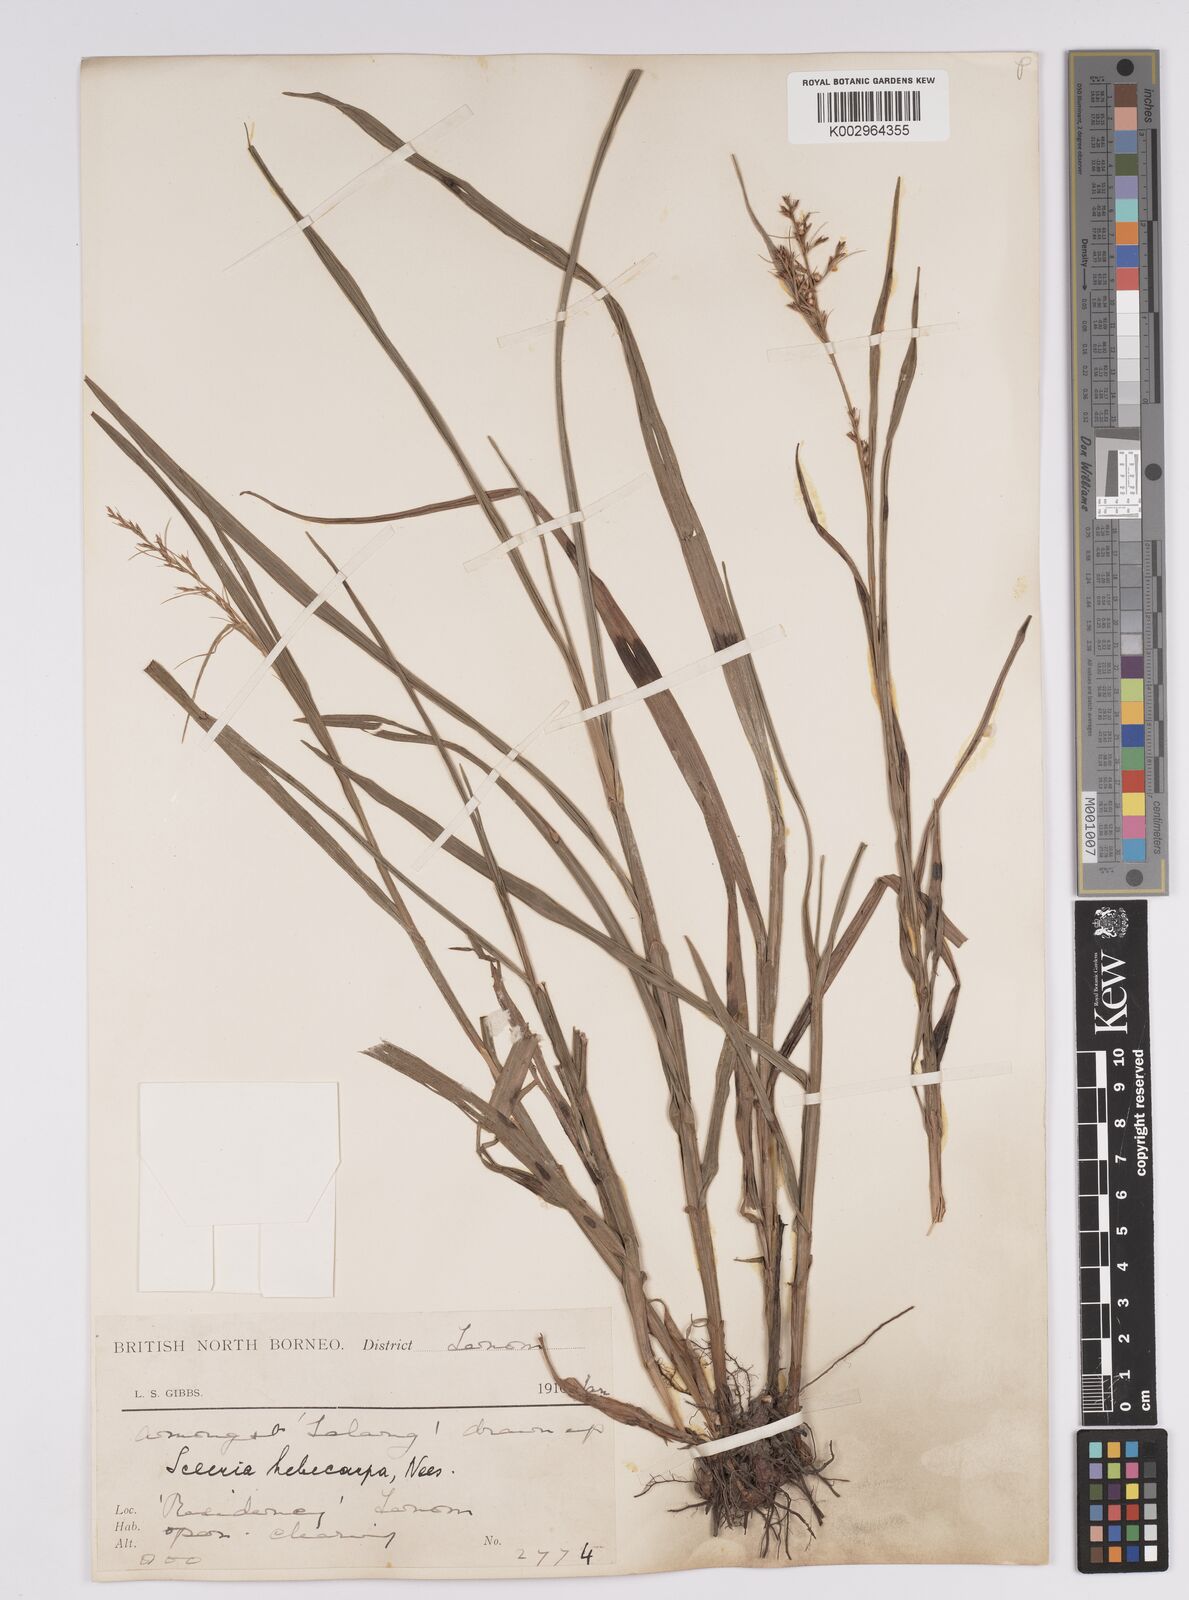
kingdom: Plantae
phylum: Tracheophyta
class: Liliopsida
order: Poales
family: Cyperaceae
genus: Scleria
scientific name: Scleria levis
